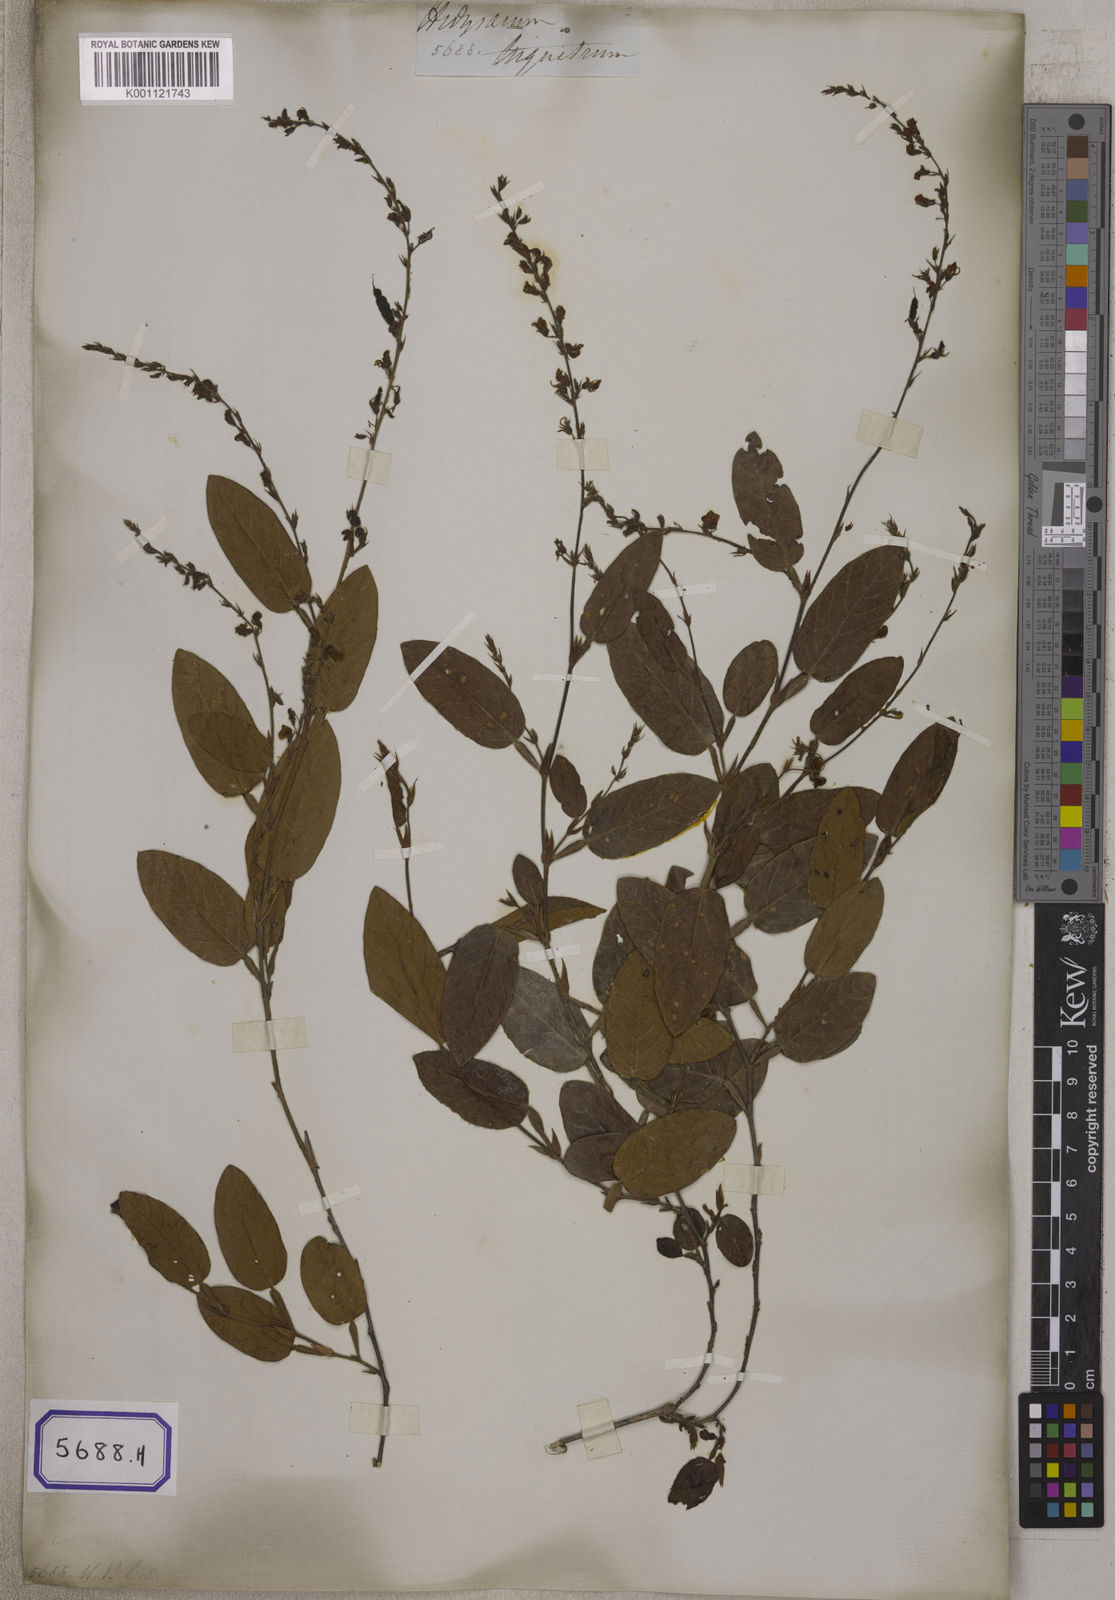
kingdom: Plantae
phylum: Tracheophyta
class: Magnoliopsida
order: Fabales
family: Fabaceae
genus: Tadehagi
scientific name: Tadehagi triquetrum
